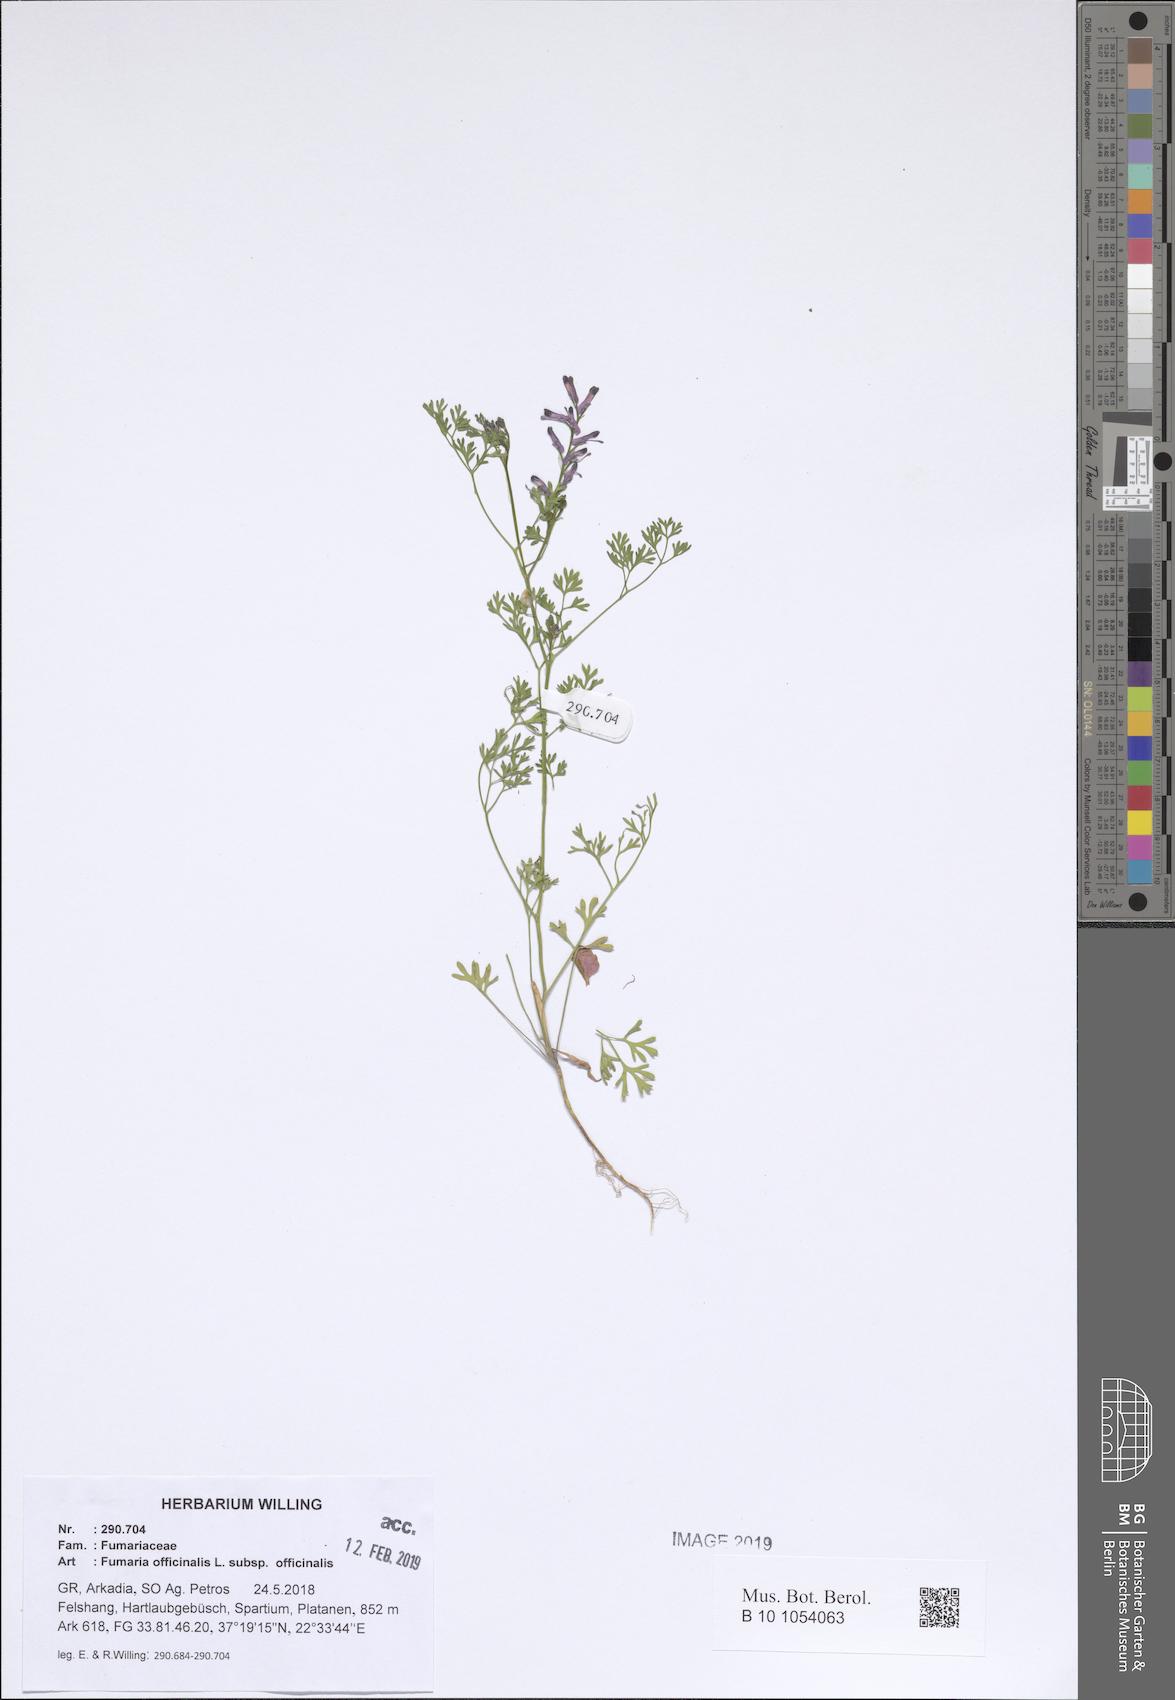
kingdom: Plantae
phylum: Tracheophyta
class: Magnoliopsida
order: Ranunculales
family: Papaveraceae
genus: Fumaria
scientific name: Fumaria officinalis
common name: Common fumitory
